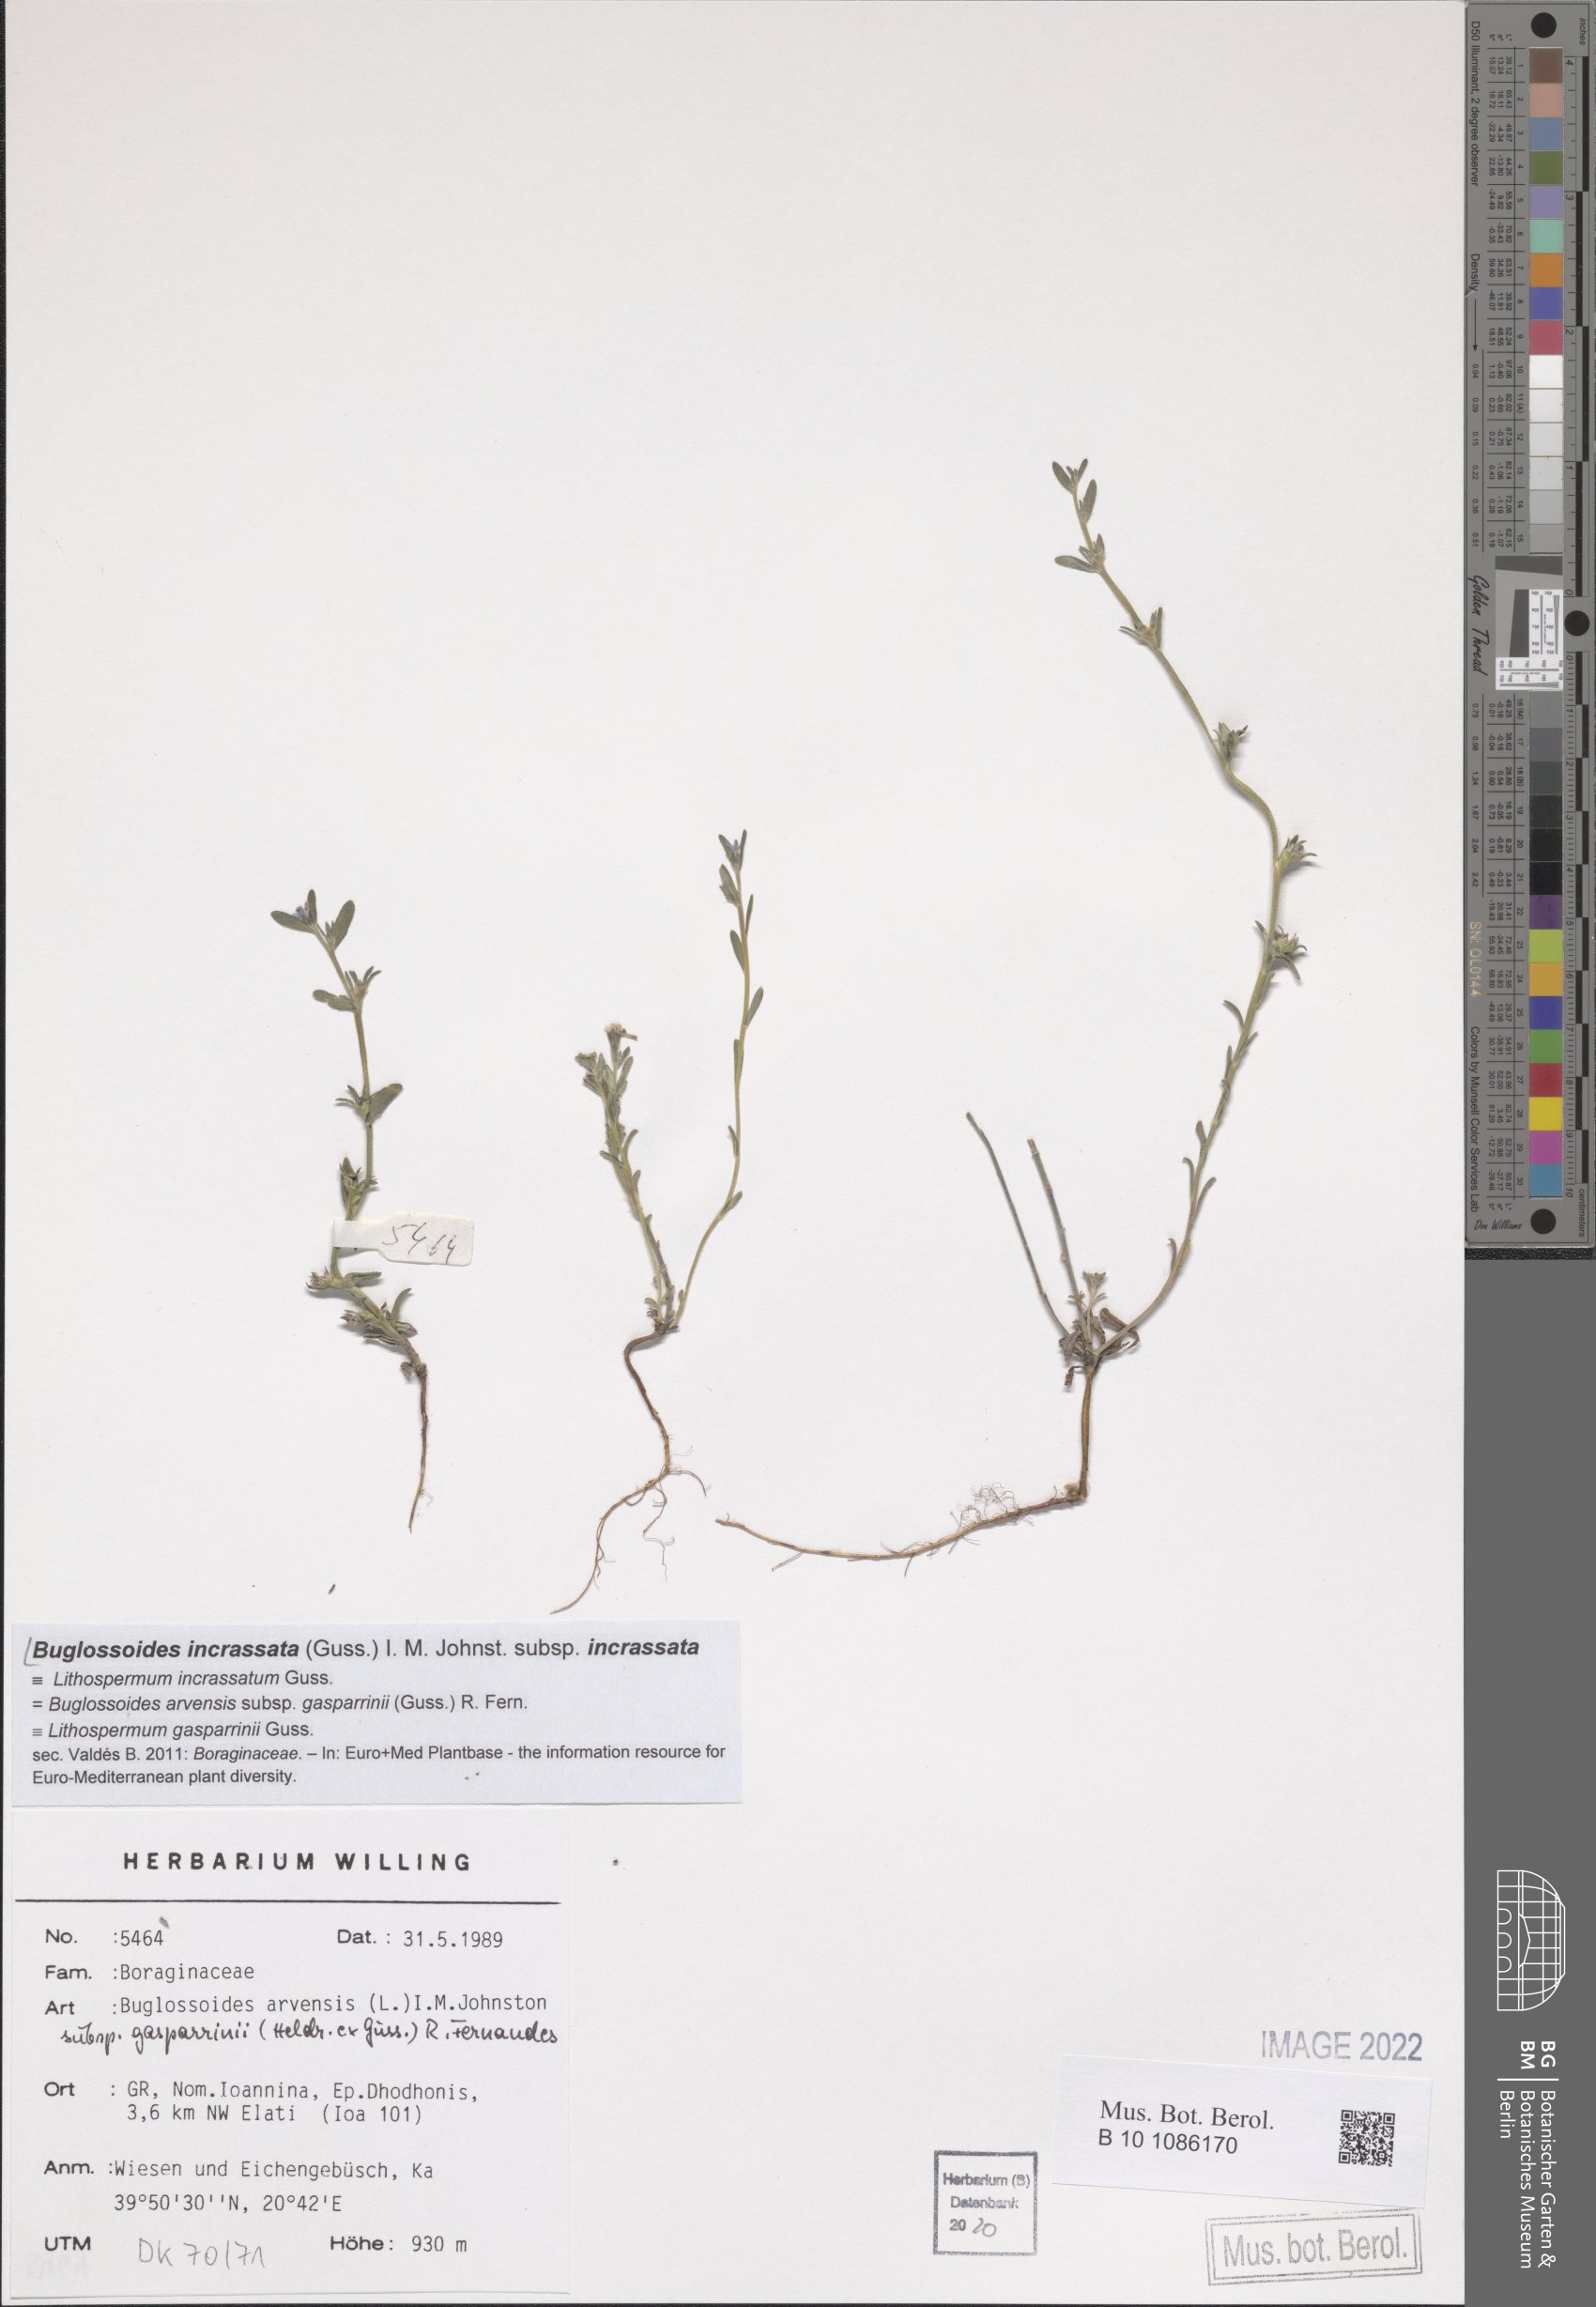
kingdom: Plantae
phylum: Tracheophyta
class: Magnoliopsida
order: Boraginales
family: Boraginaceae
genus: Buglossoides
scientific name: Buglossoides incrassata
